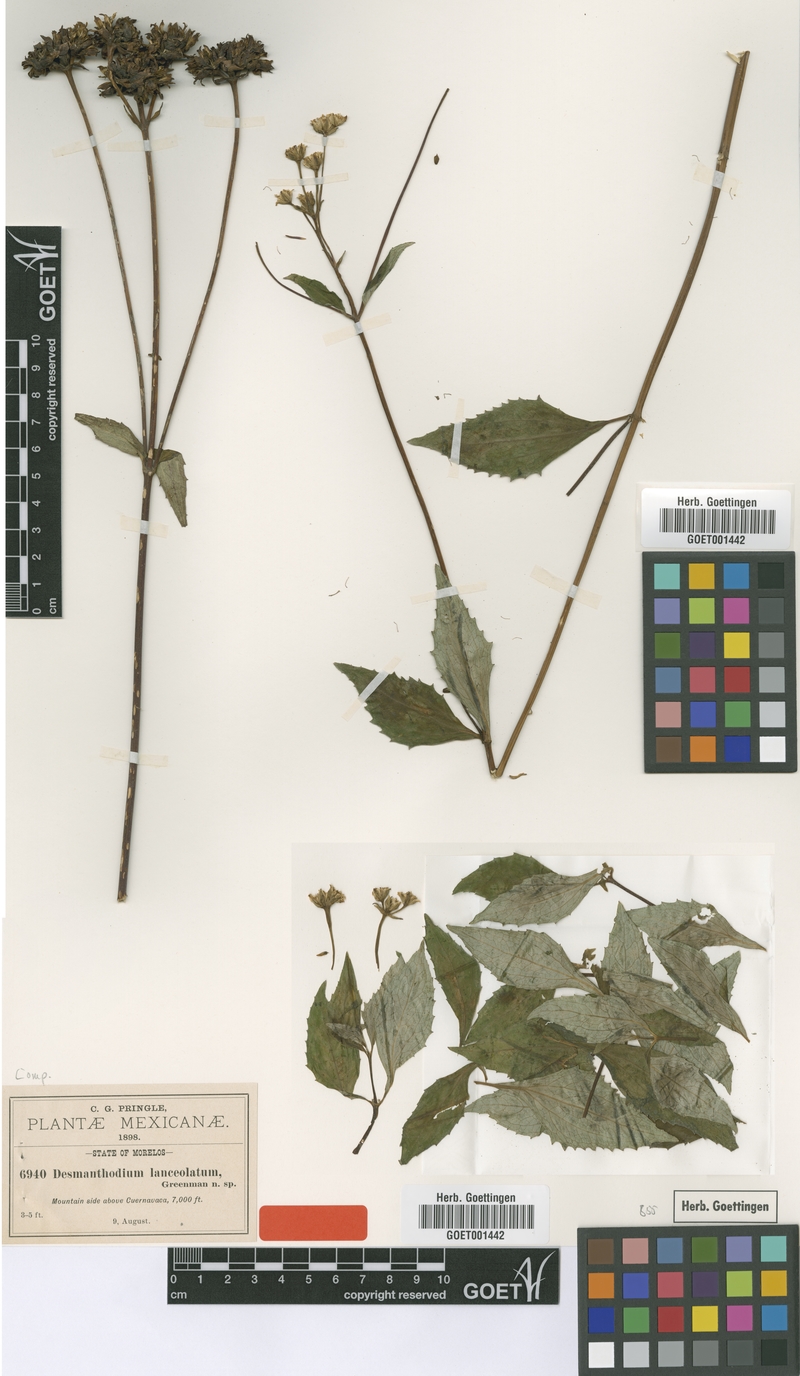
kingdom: Plantae
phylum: Tracheophyta
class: Magnoliopsida
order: Asterales
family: Asteraceae
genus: Desmanthodium
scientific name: Desmanthodium lanceolatum
